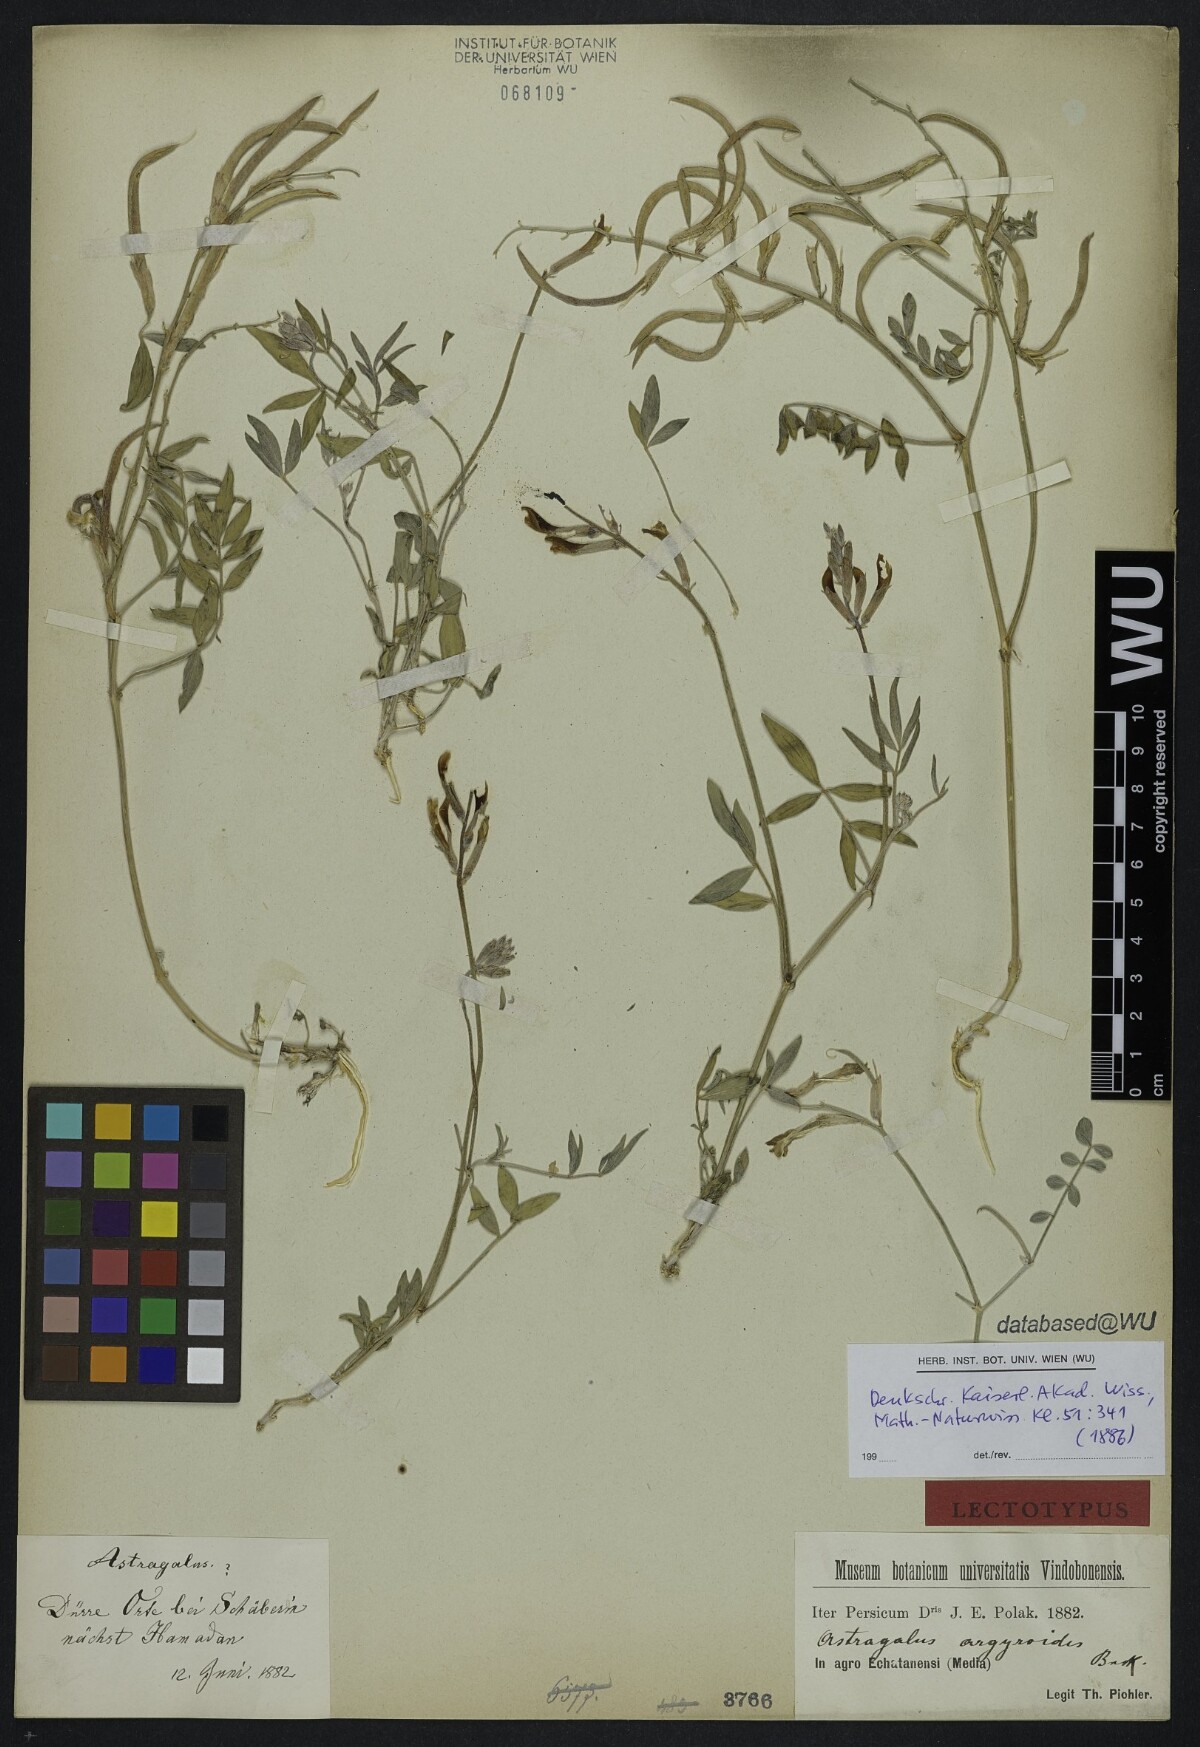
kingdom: Plantae
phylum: Tracheophyta
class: Magnoliopsida
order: Fabales
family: Fabaceae
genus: Astragalus
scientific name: Astragalus argyroides
